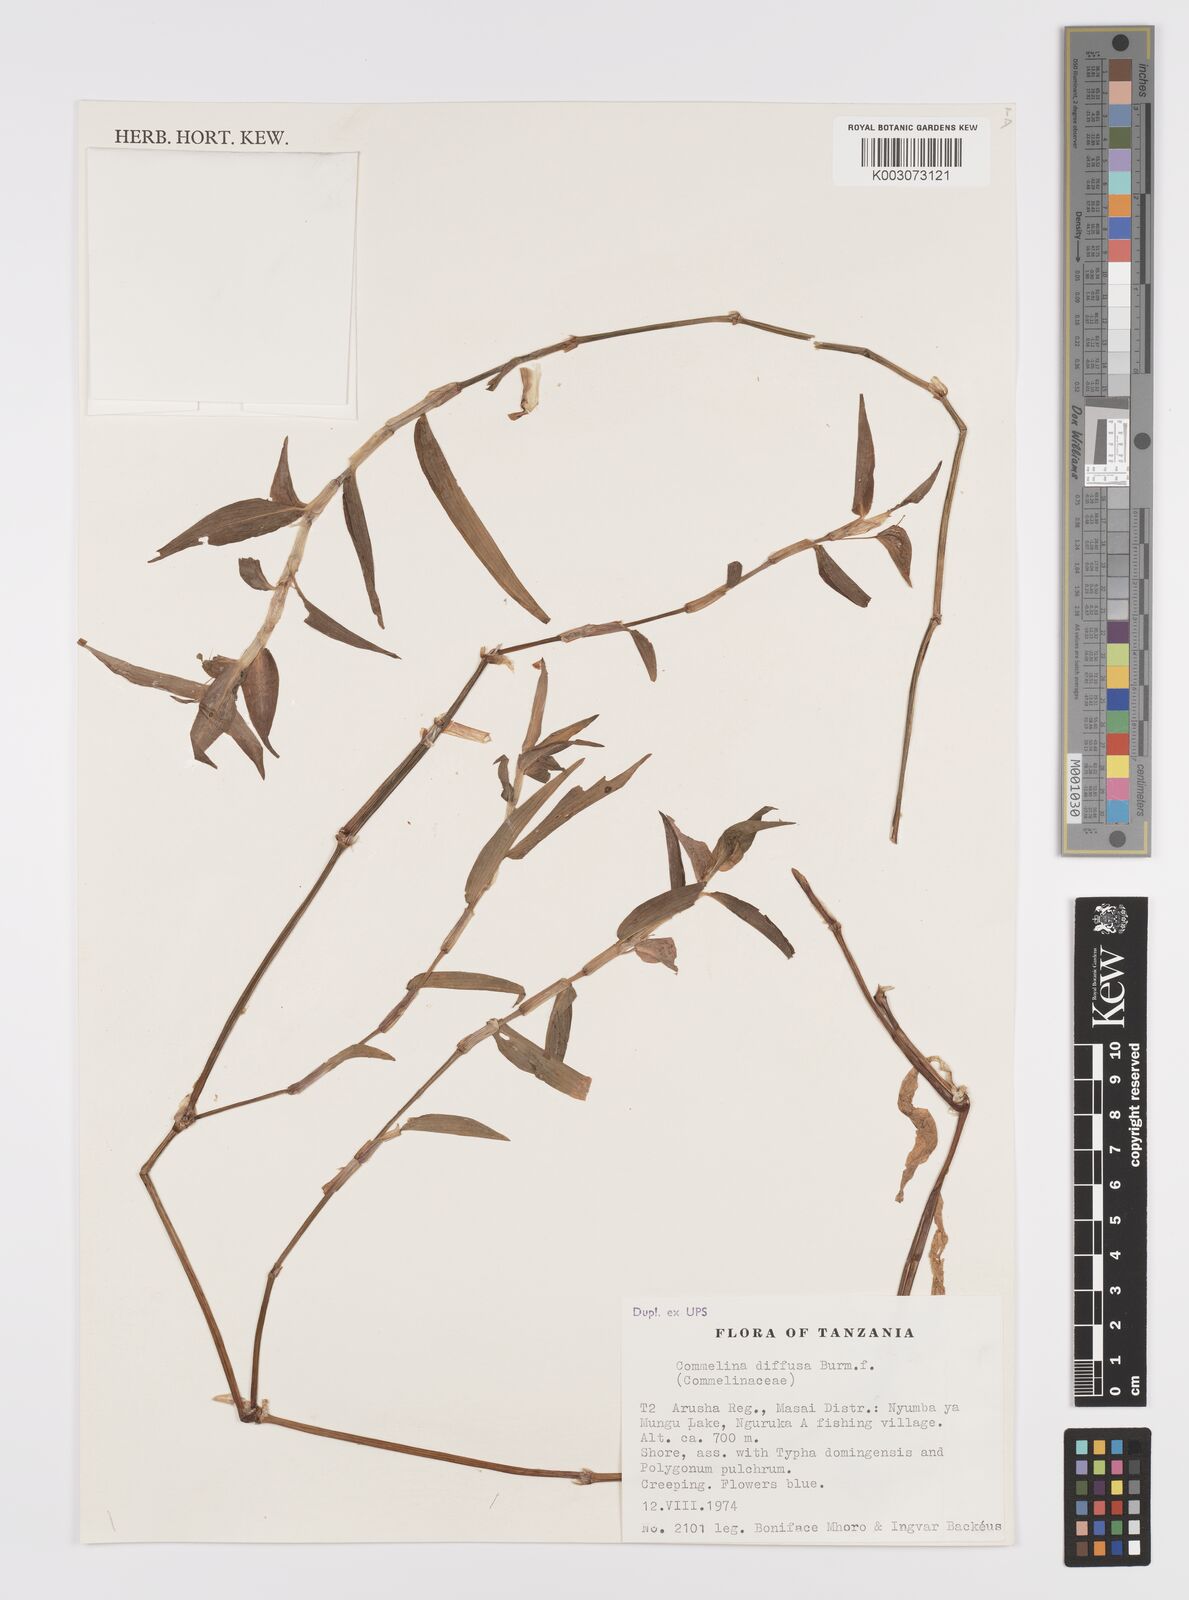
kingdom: Plantae
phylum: Tracheophyta
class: Liliopsida
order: Commelinales
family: Commelinaceae
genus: Commelina
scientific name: Commelina diffusa
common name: Climbing dayflower
